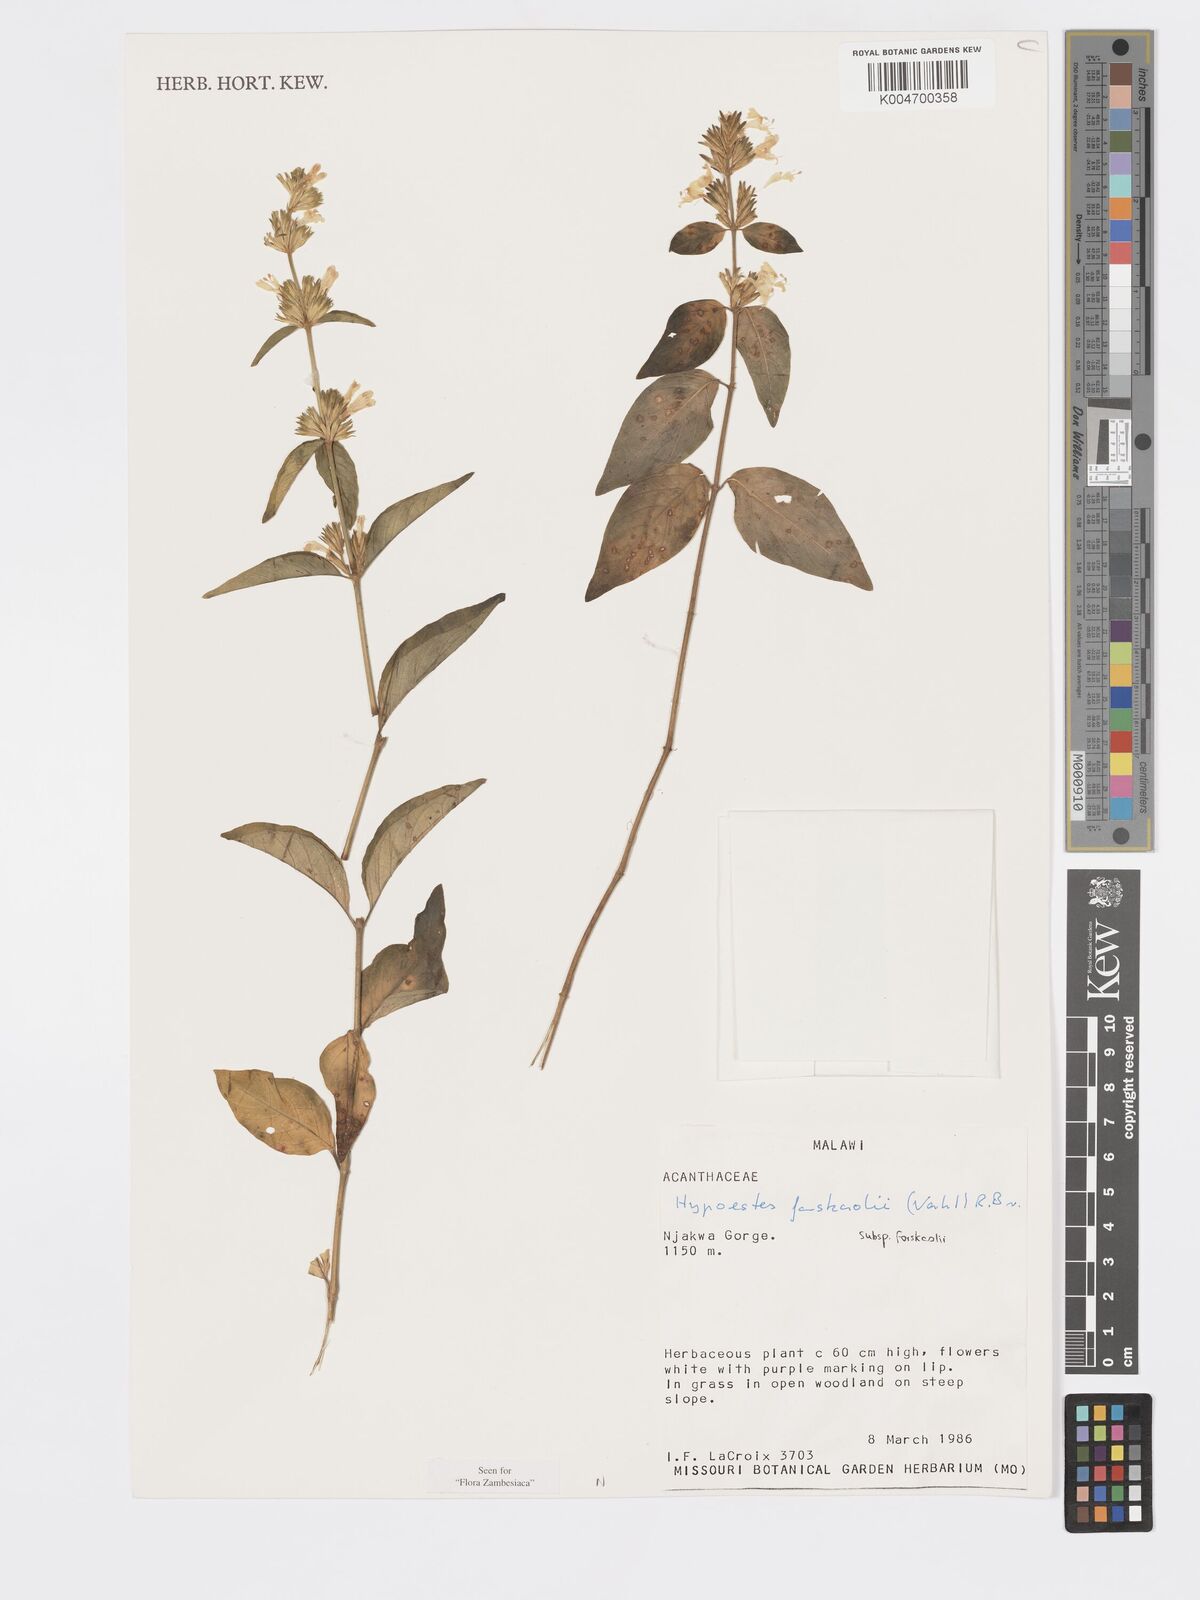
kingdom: Plantae
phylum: Tracheophyta
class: Magnoliopsida
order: Lamiales
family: Acanthaceae
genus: Hypoestes
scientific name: Hypoestes forskaolii
